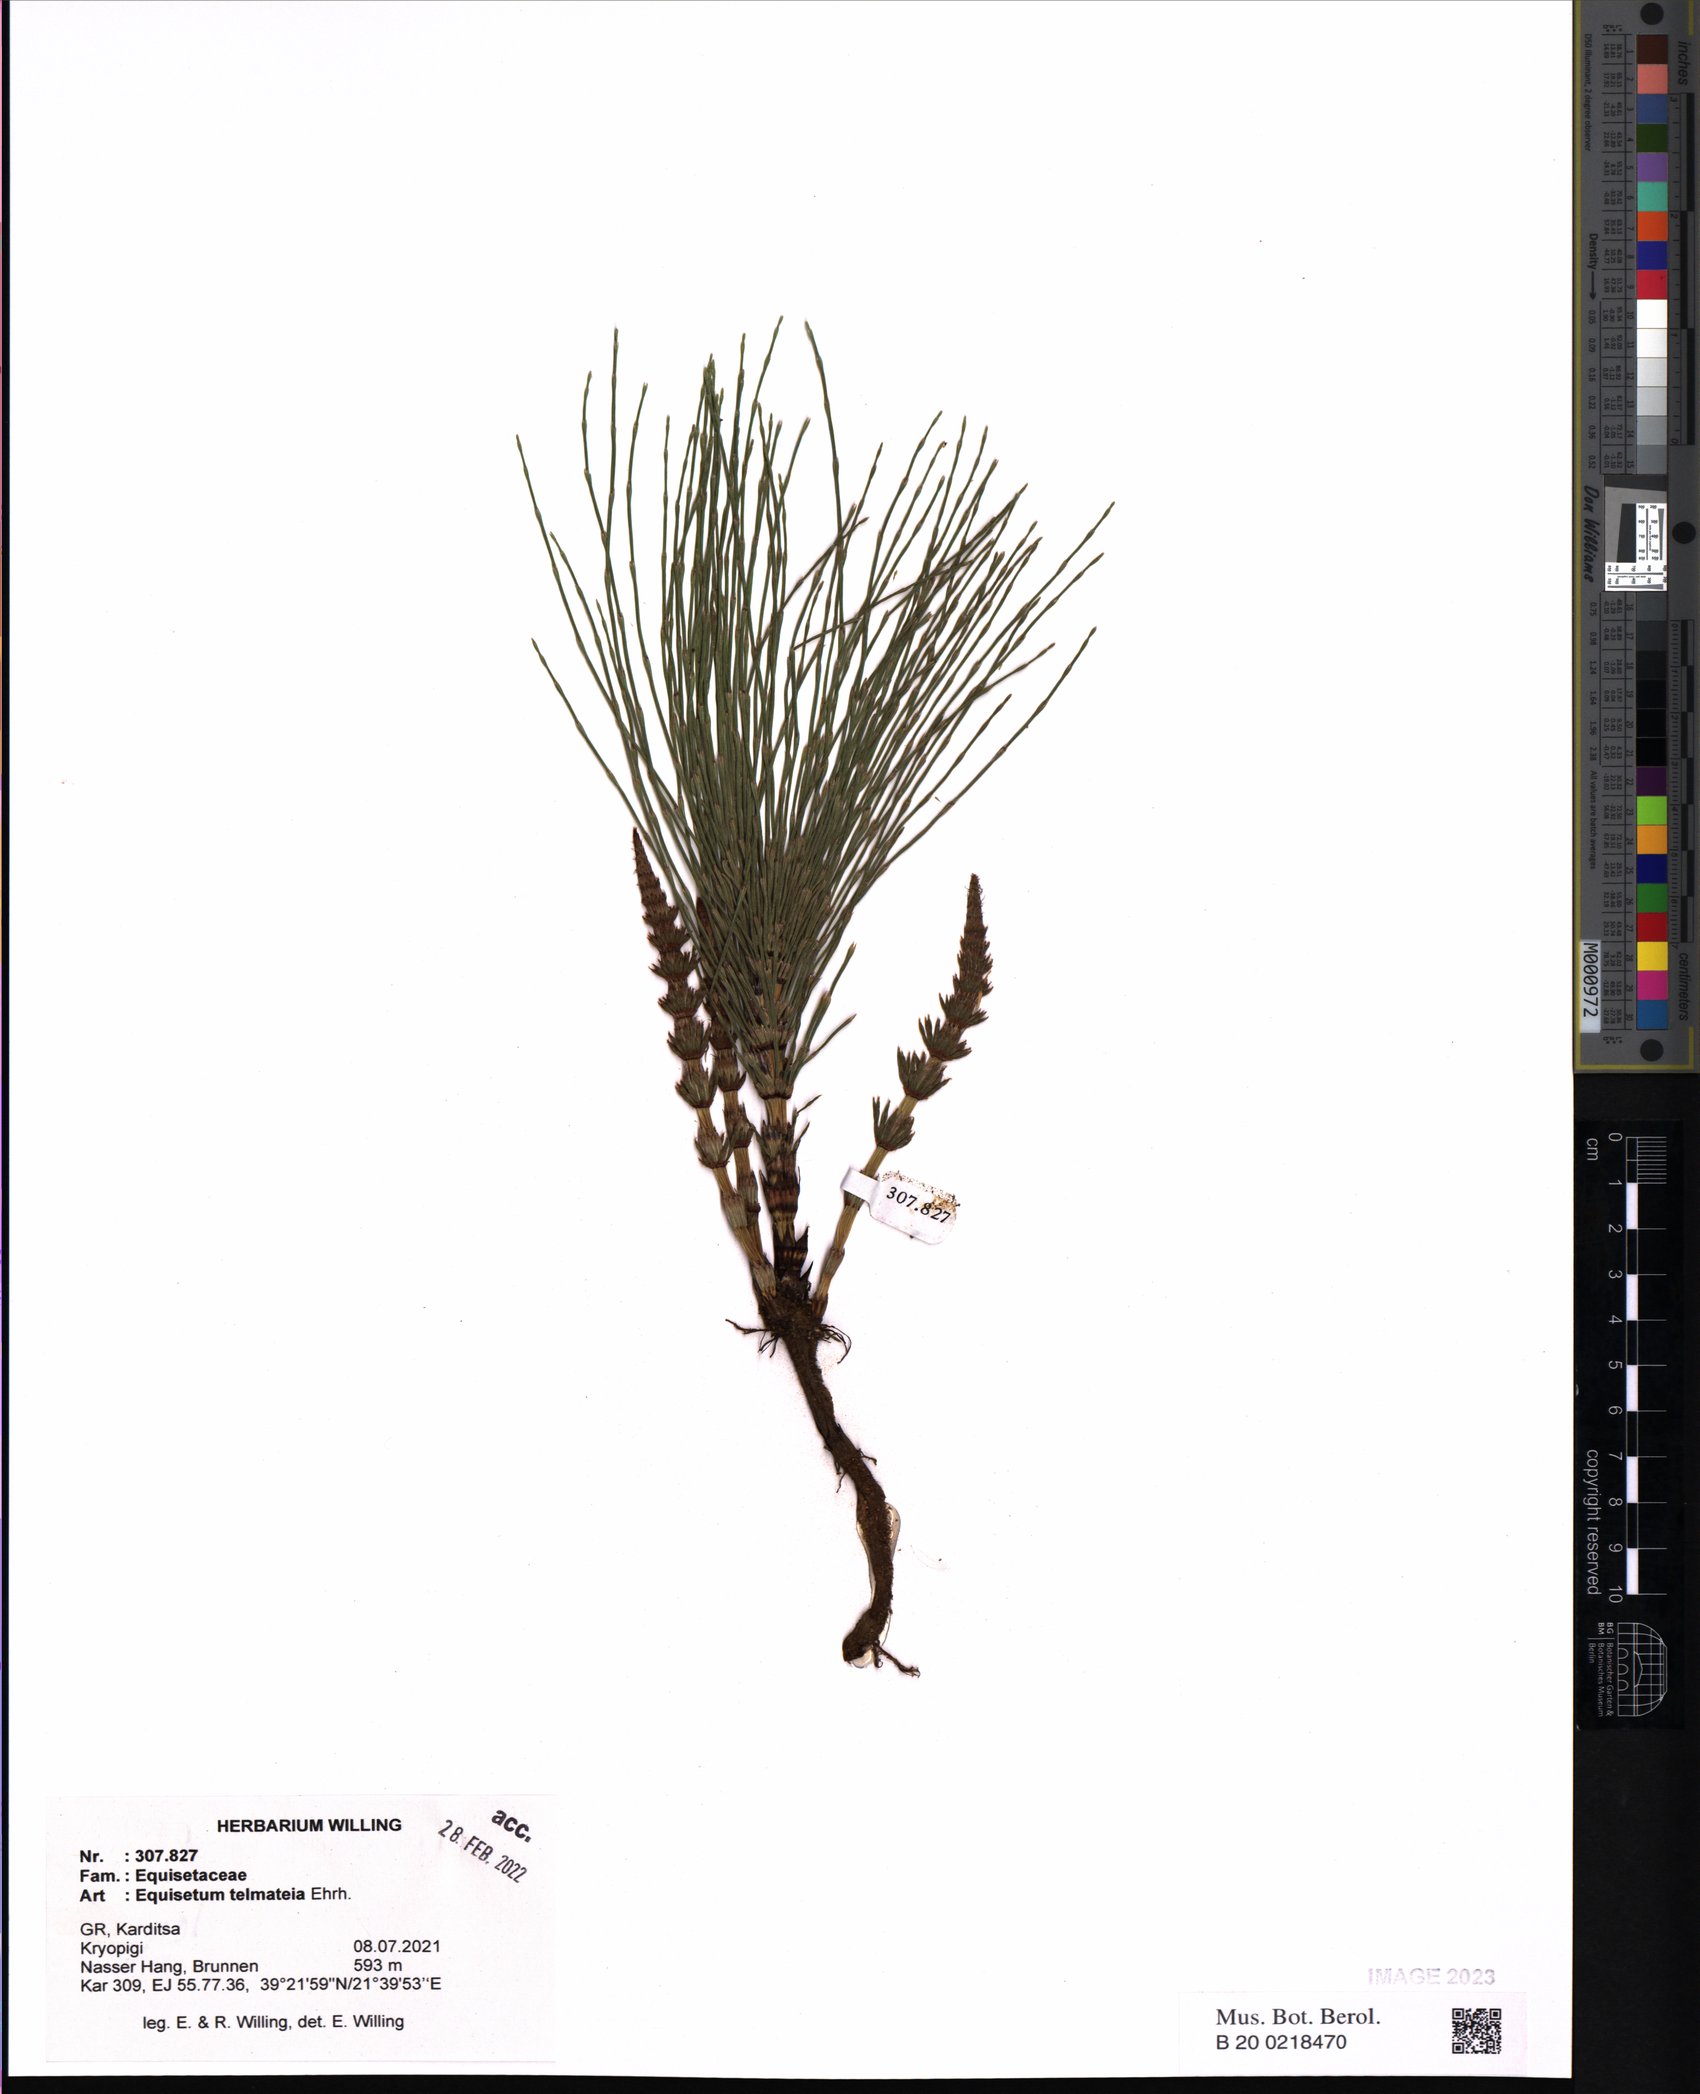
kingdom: Plantae
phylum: Tracheophyta
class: Polypodiopsida
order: Equisetales
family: Equisetaceae
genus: Equisetum
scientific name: Equisetum telmateia
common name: Great horsetail
